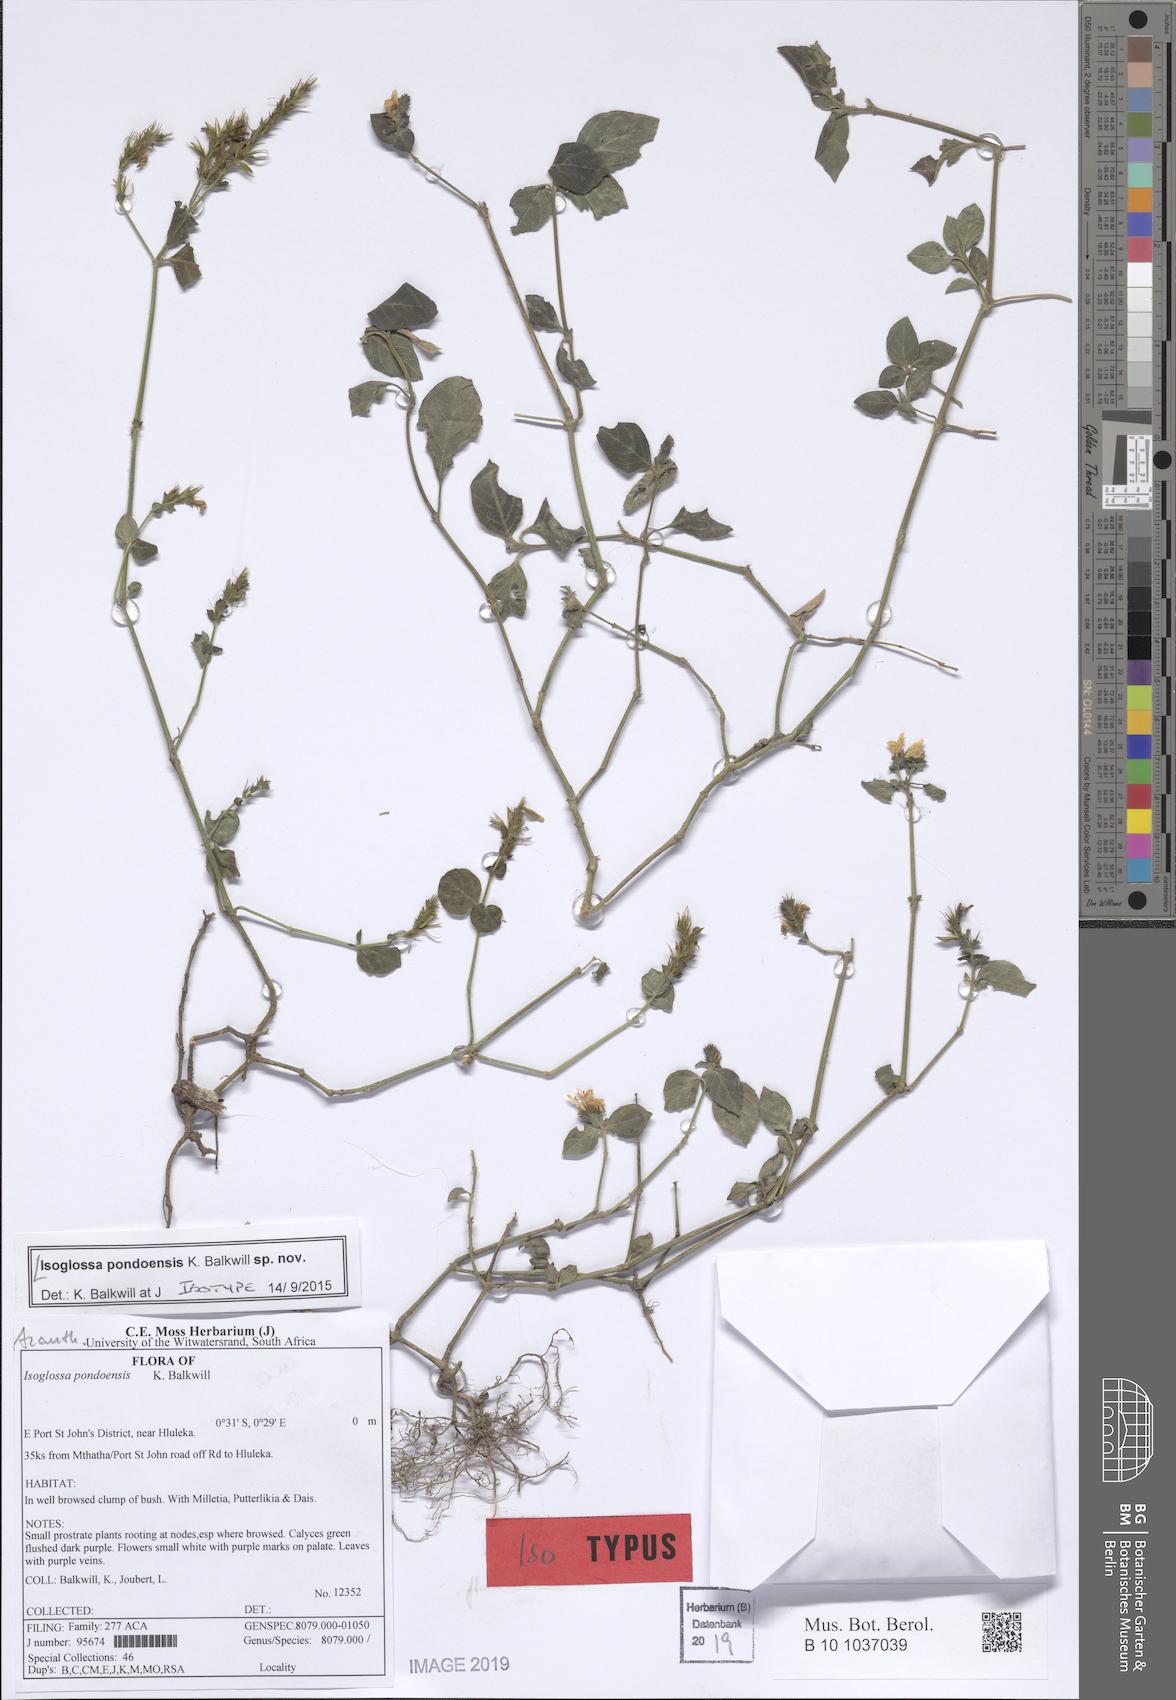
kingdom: Plantae
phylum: Tracheophyta
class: Magnoliopsida
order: Lamiales
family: Acanthaceae
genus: Isoglossa
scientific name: Isoglossa
